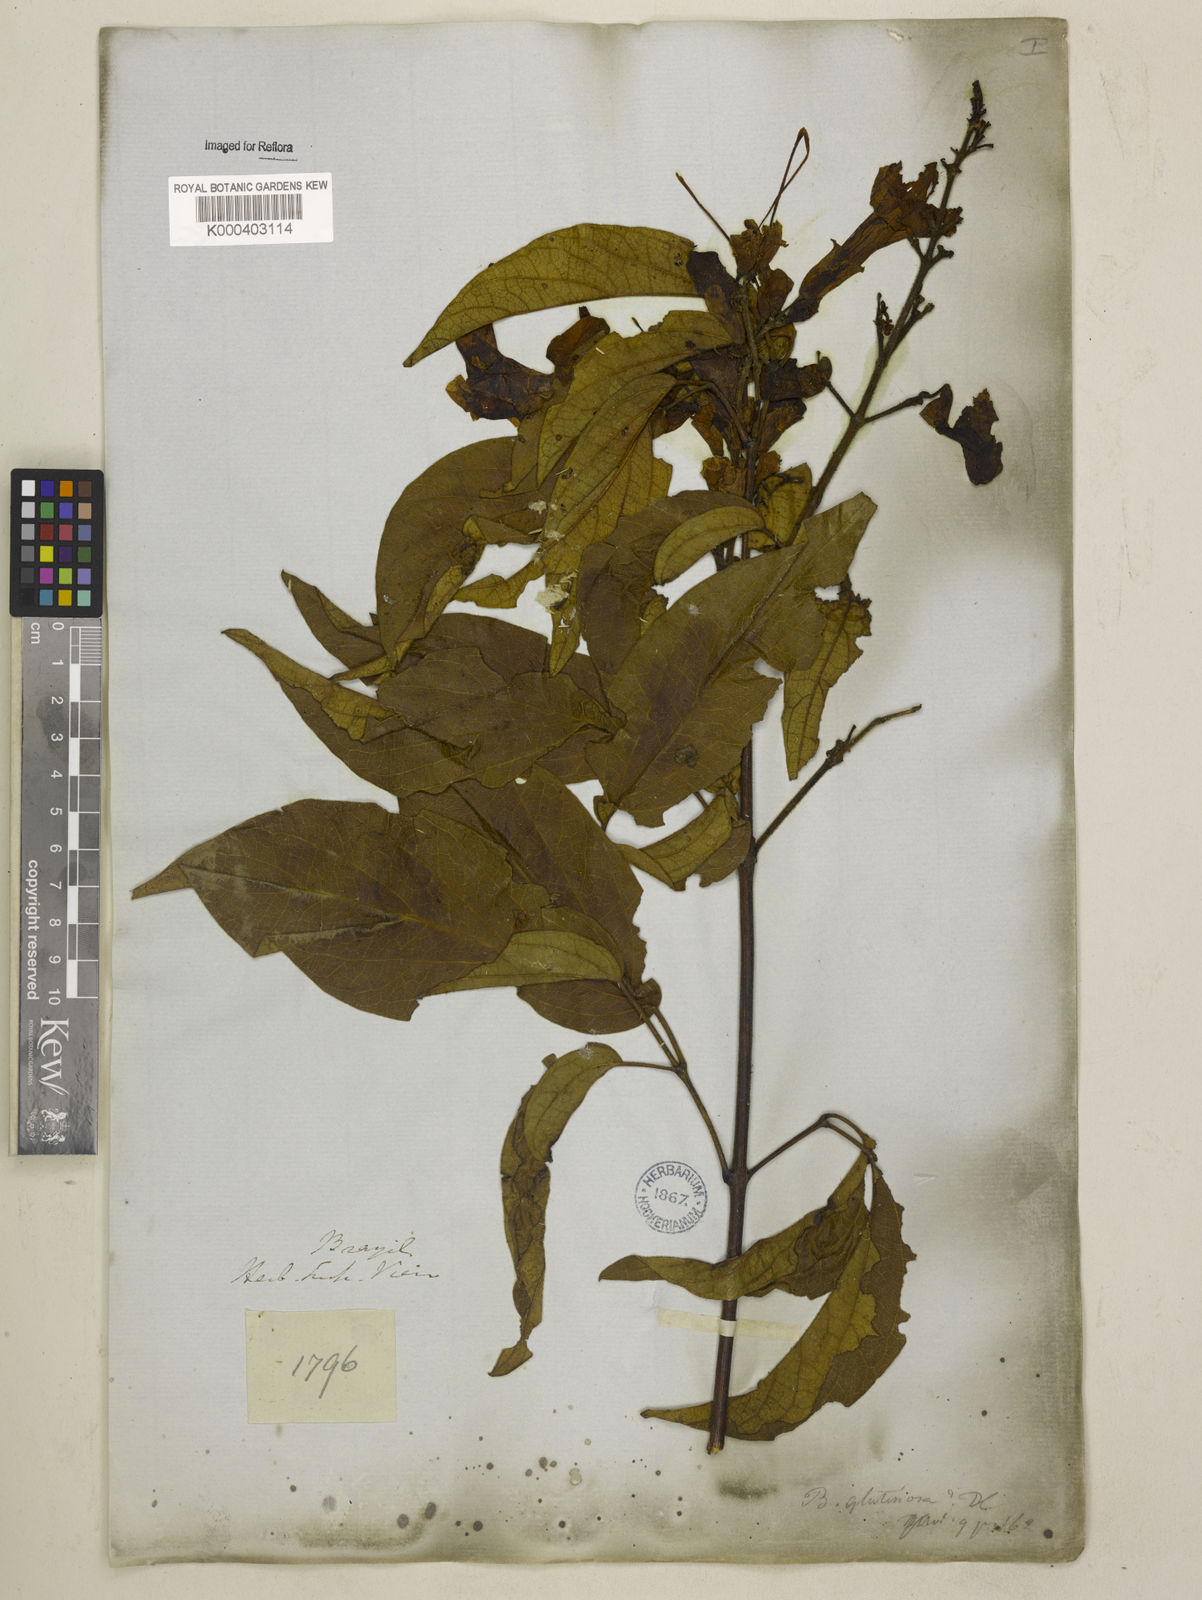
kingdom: Plantae
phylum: Tracheophyta
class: Magnoliopsida
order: Lamiales
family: Bignoniaceae
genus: Cuspidaria
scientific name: Cuspidaria sceptrum
